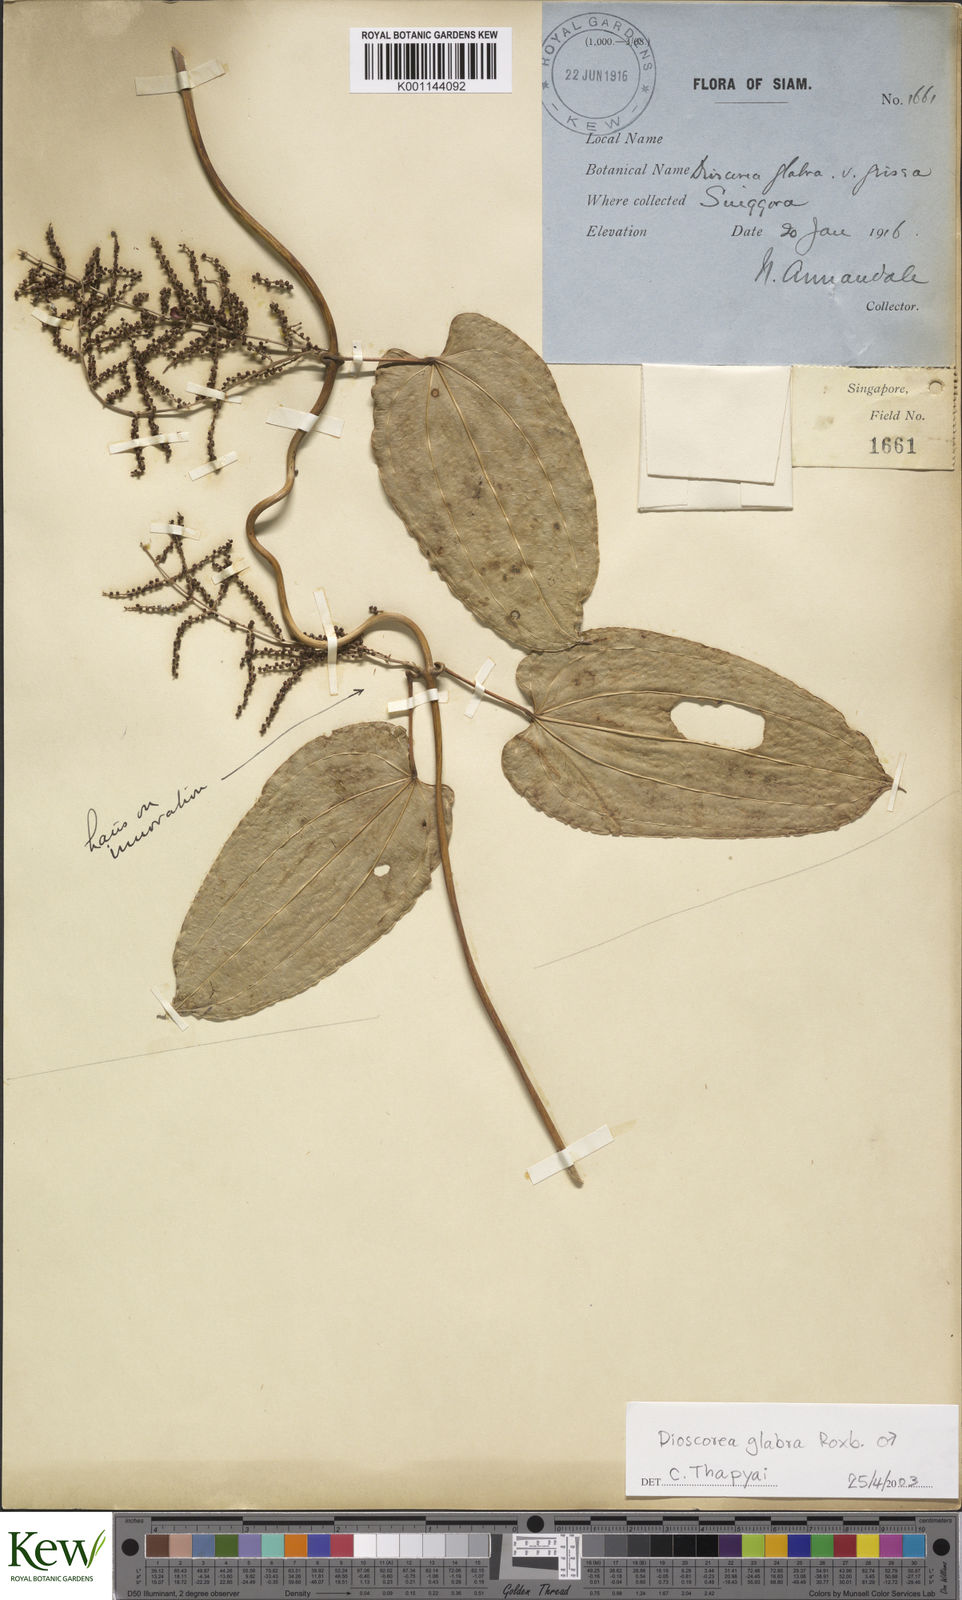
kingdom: Plantae
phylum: Tracheophyta
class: Liliopsida
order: Dioscoreales
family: Dioscoreaceae
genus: Dioscorea
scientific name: Dioscorea glabra
